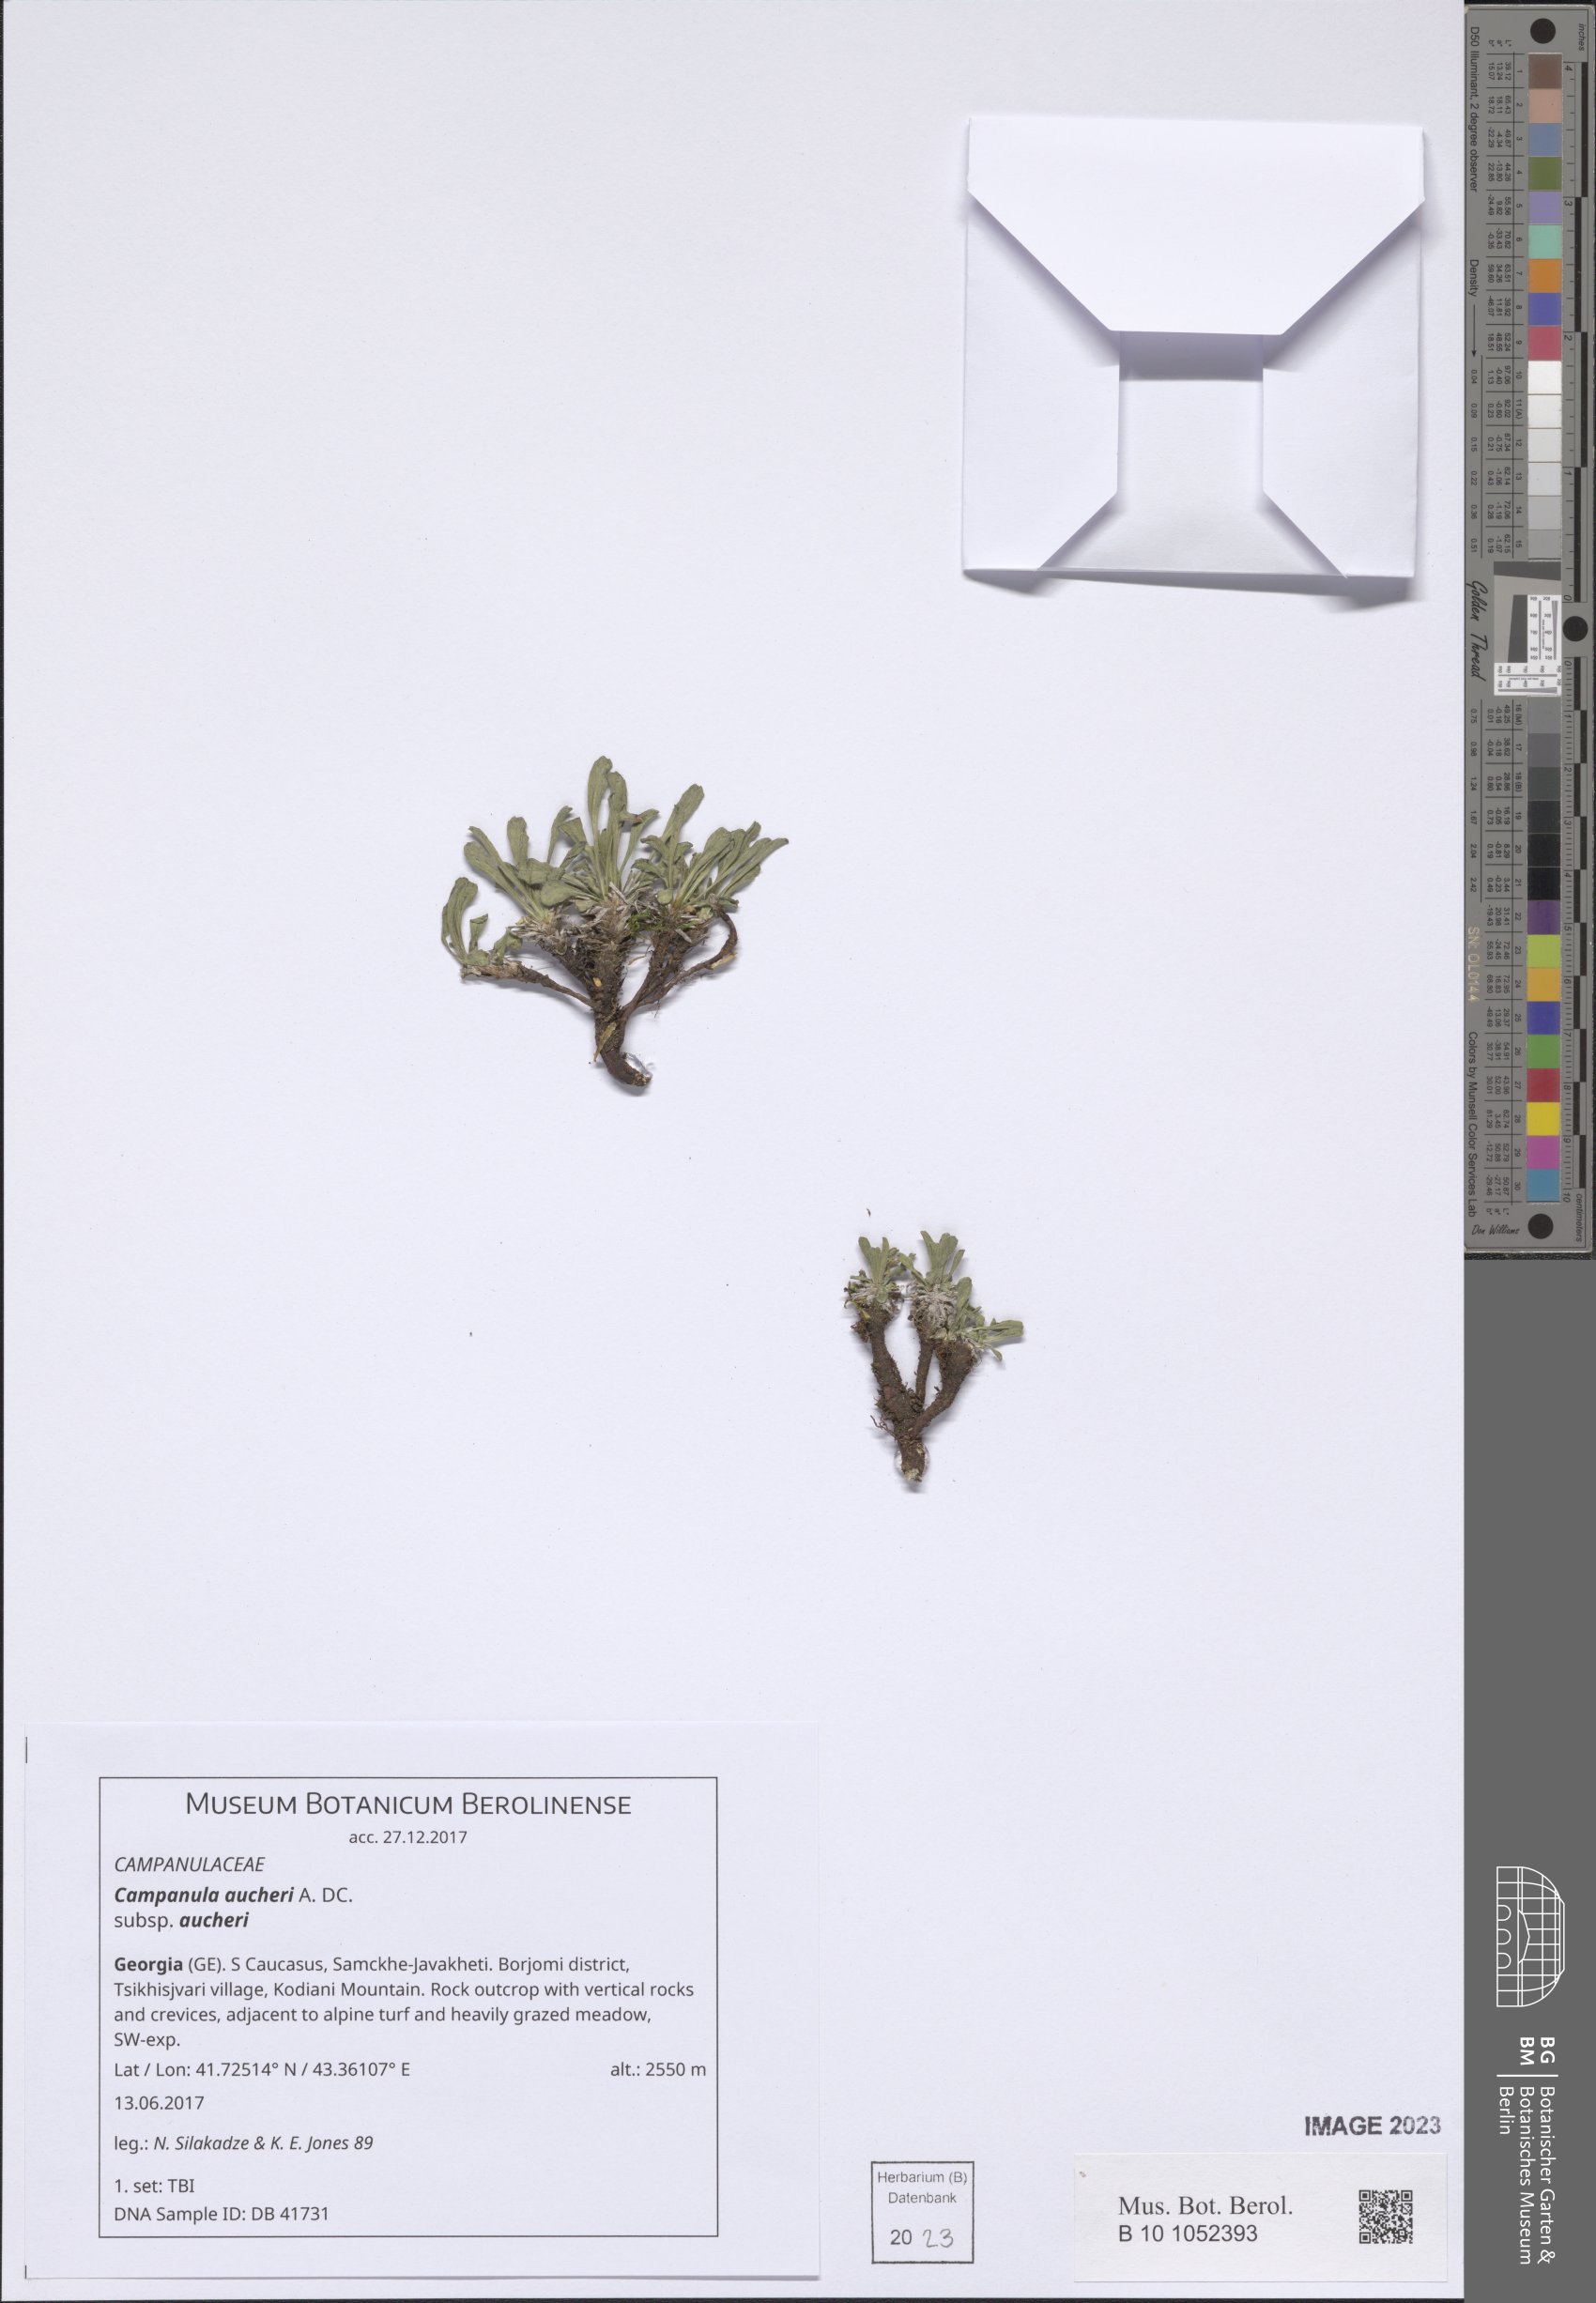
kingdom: Plantae
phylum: Tracheophyta
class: Magnoliopsida
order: Asterales
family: Campanulaceae
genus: Campanula
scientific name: Campanula saxifraga
